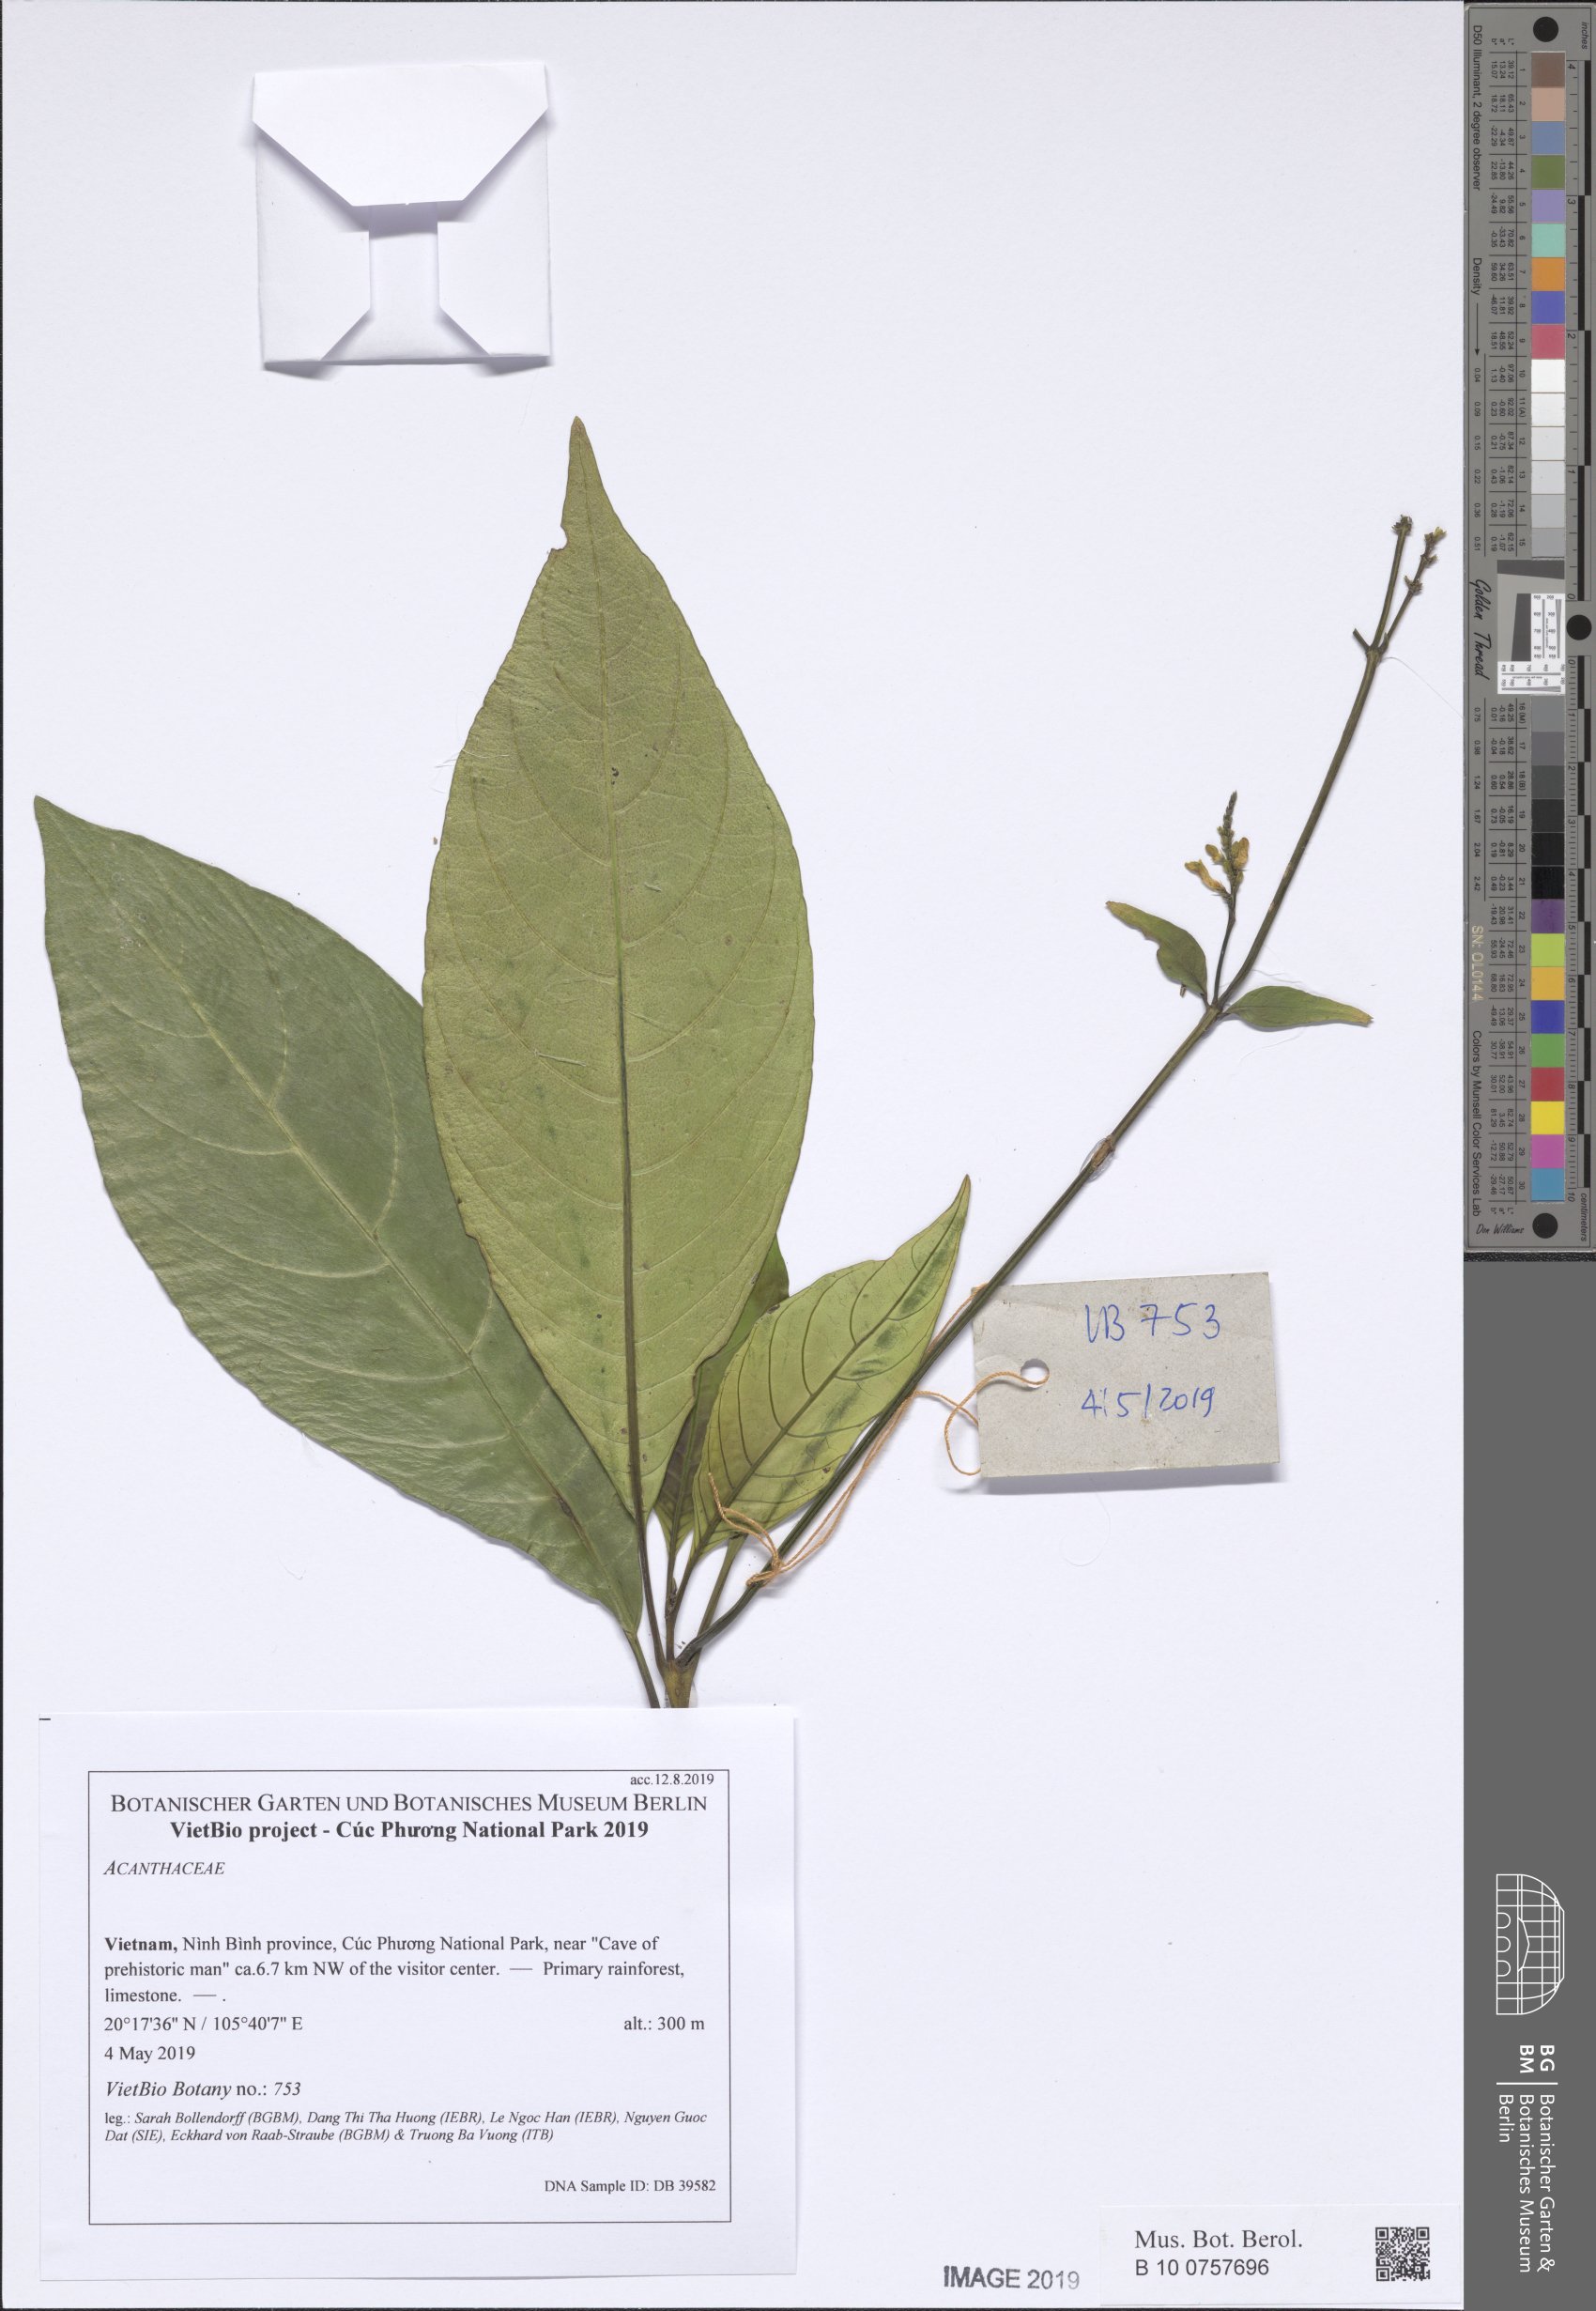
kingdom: Plantae
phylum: Tracheophyta
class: Magnoliopsida
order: Lamiales
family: Acanthaceae
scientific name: Acanthaceae
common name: Acanthaceae
